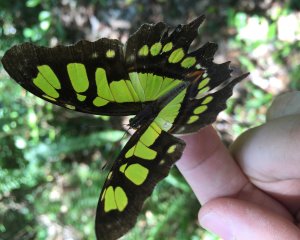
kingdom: Animalia
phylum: Arthropoda
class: Insecta
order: Lepidoptera
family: Nymphalidae
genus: Siproeta
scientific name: Siproeta stelenes
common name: Malachite
